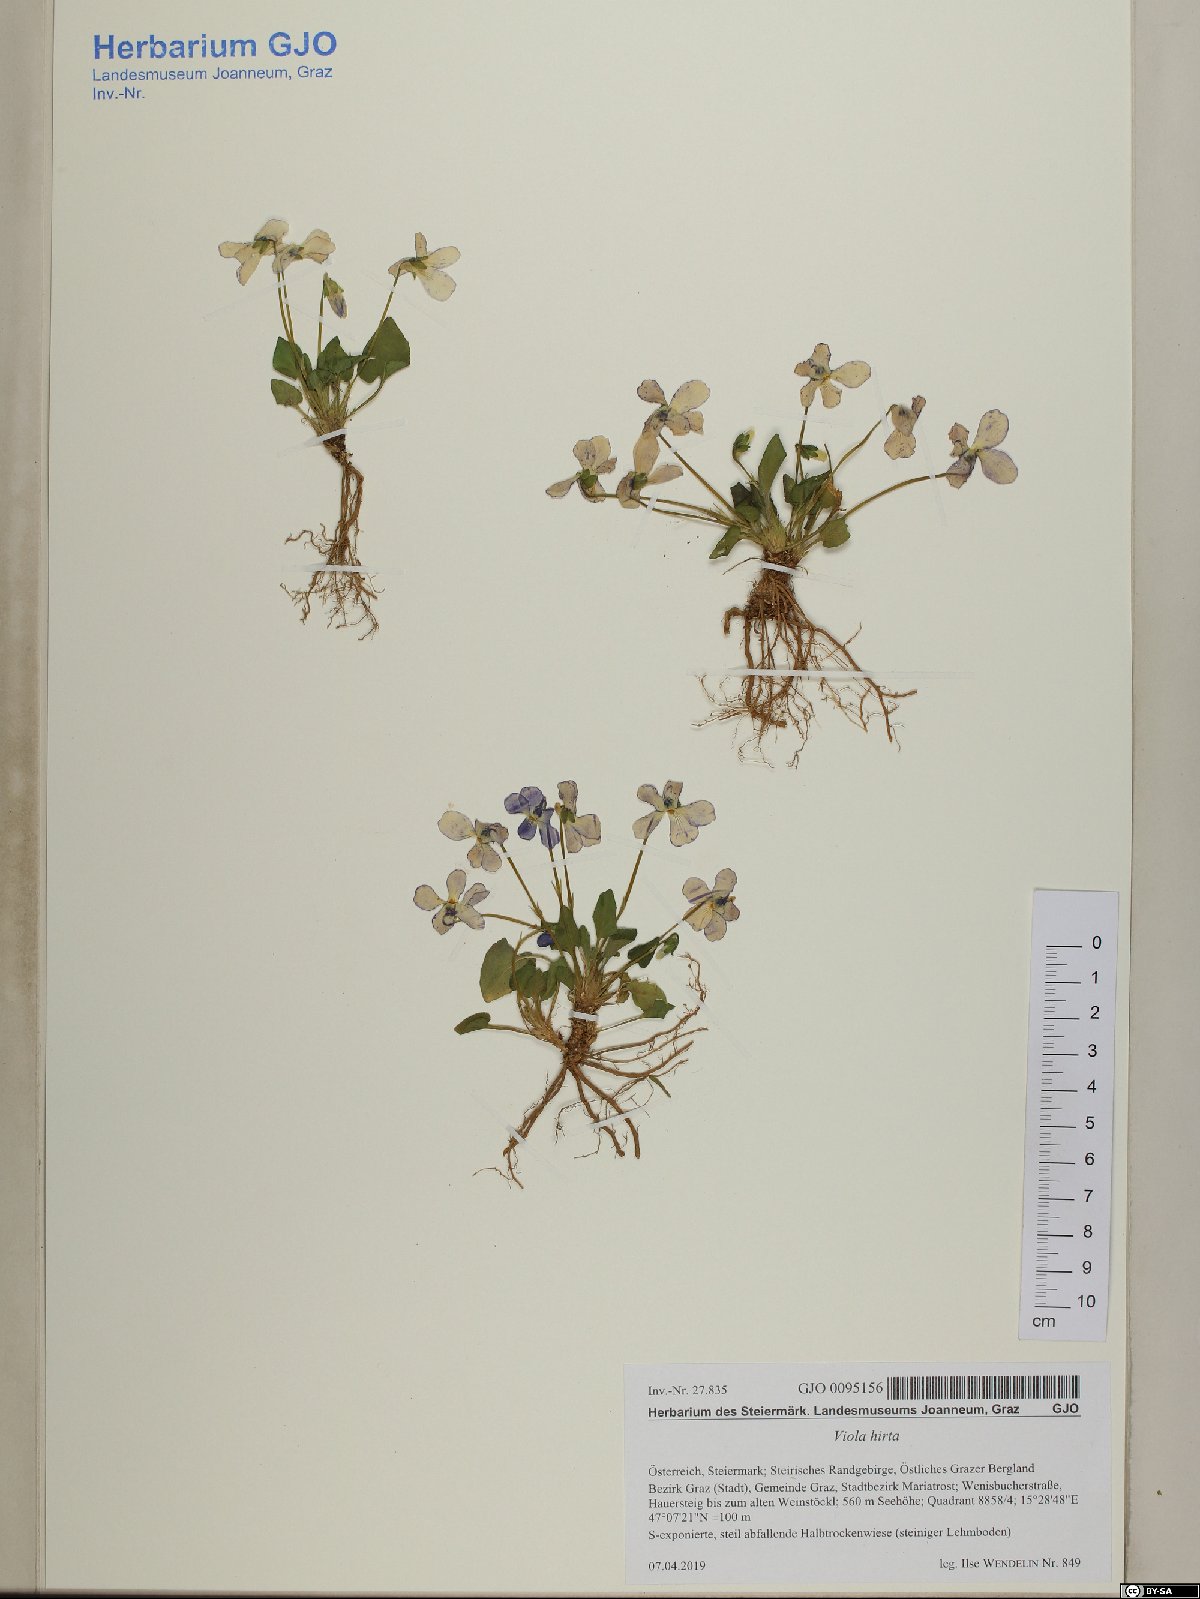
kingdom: Plantae
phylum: Tracheophyta
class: Magnoliopsida
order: Malpighiales
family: Violaceae
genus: Viola
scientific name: Viola hirta
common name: Hairy violet
